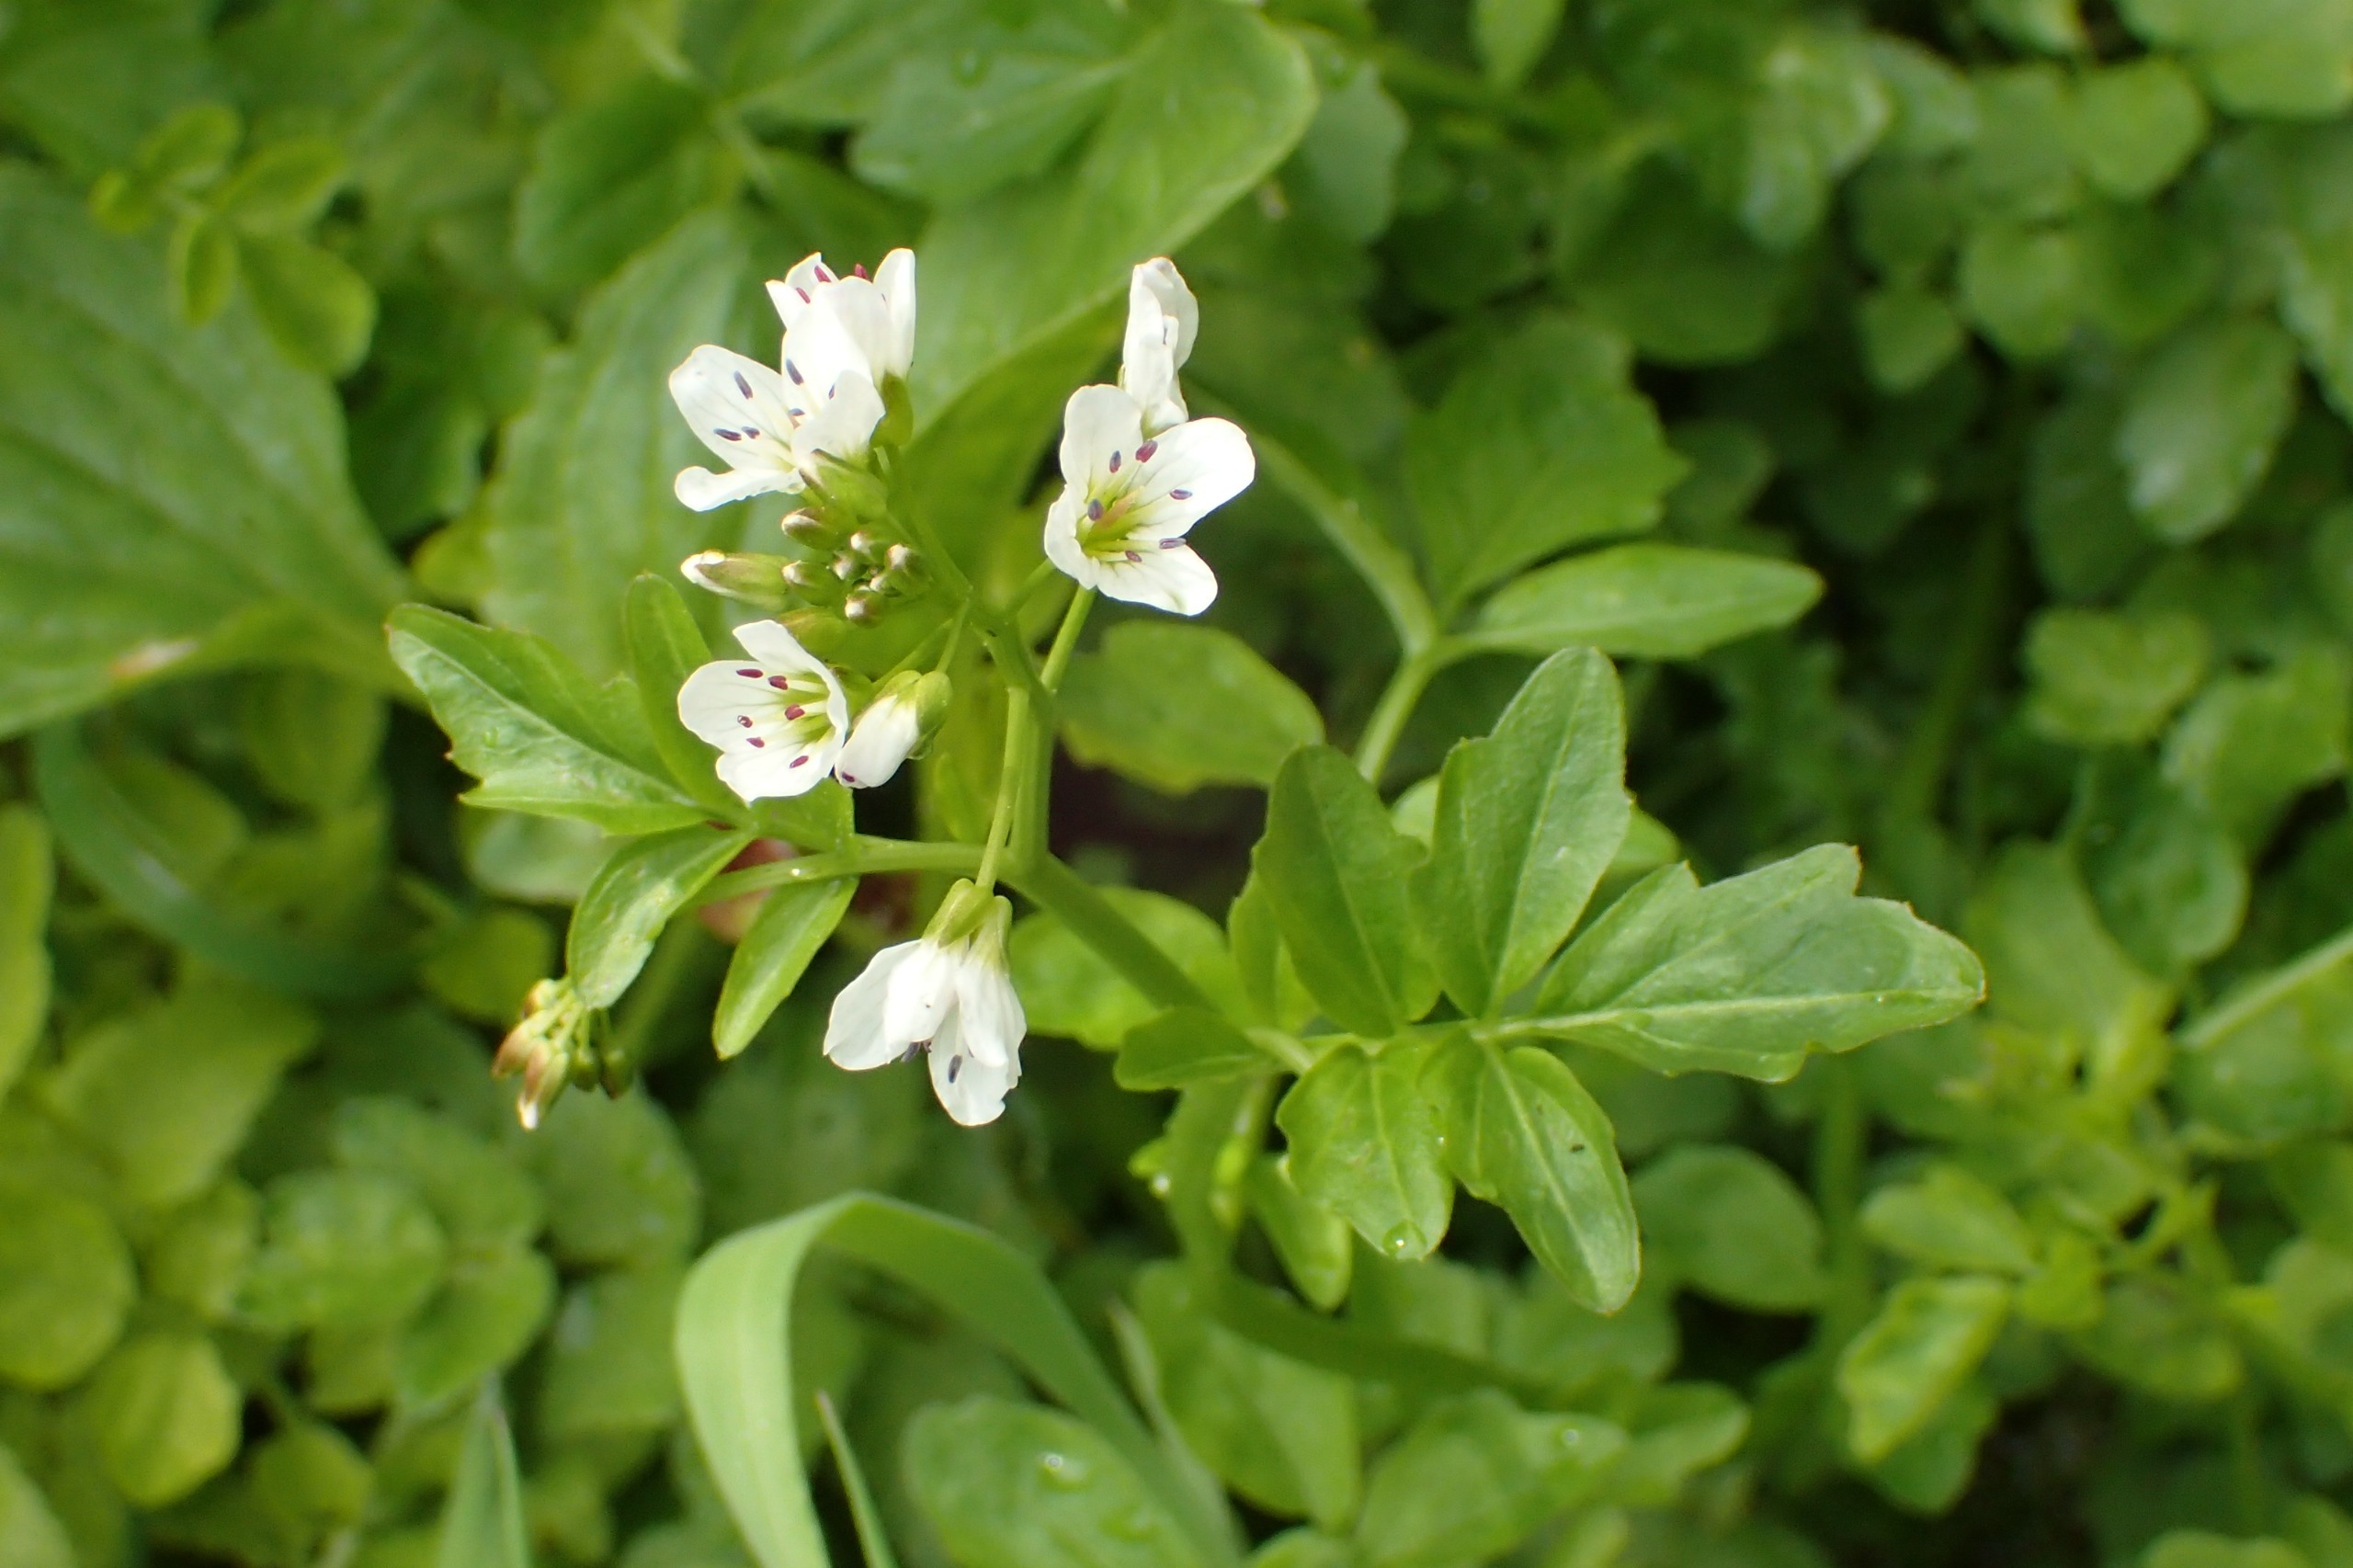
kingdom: Plantae
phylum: Tracheophyta
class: Magnoliopsida
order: Brassicales
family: Brassicaceae
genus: Cardamine
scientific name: Cardamine amara
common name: Vandkarse
